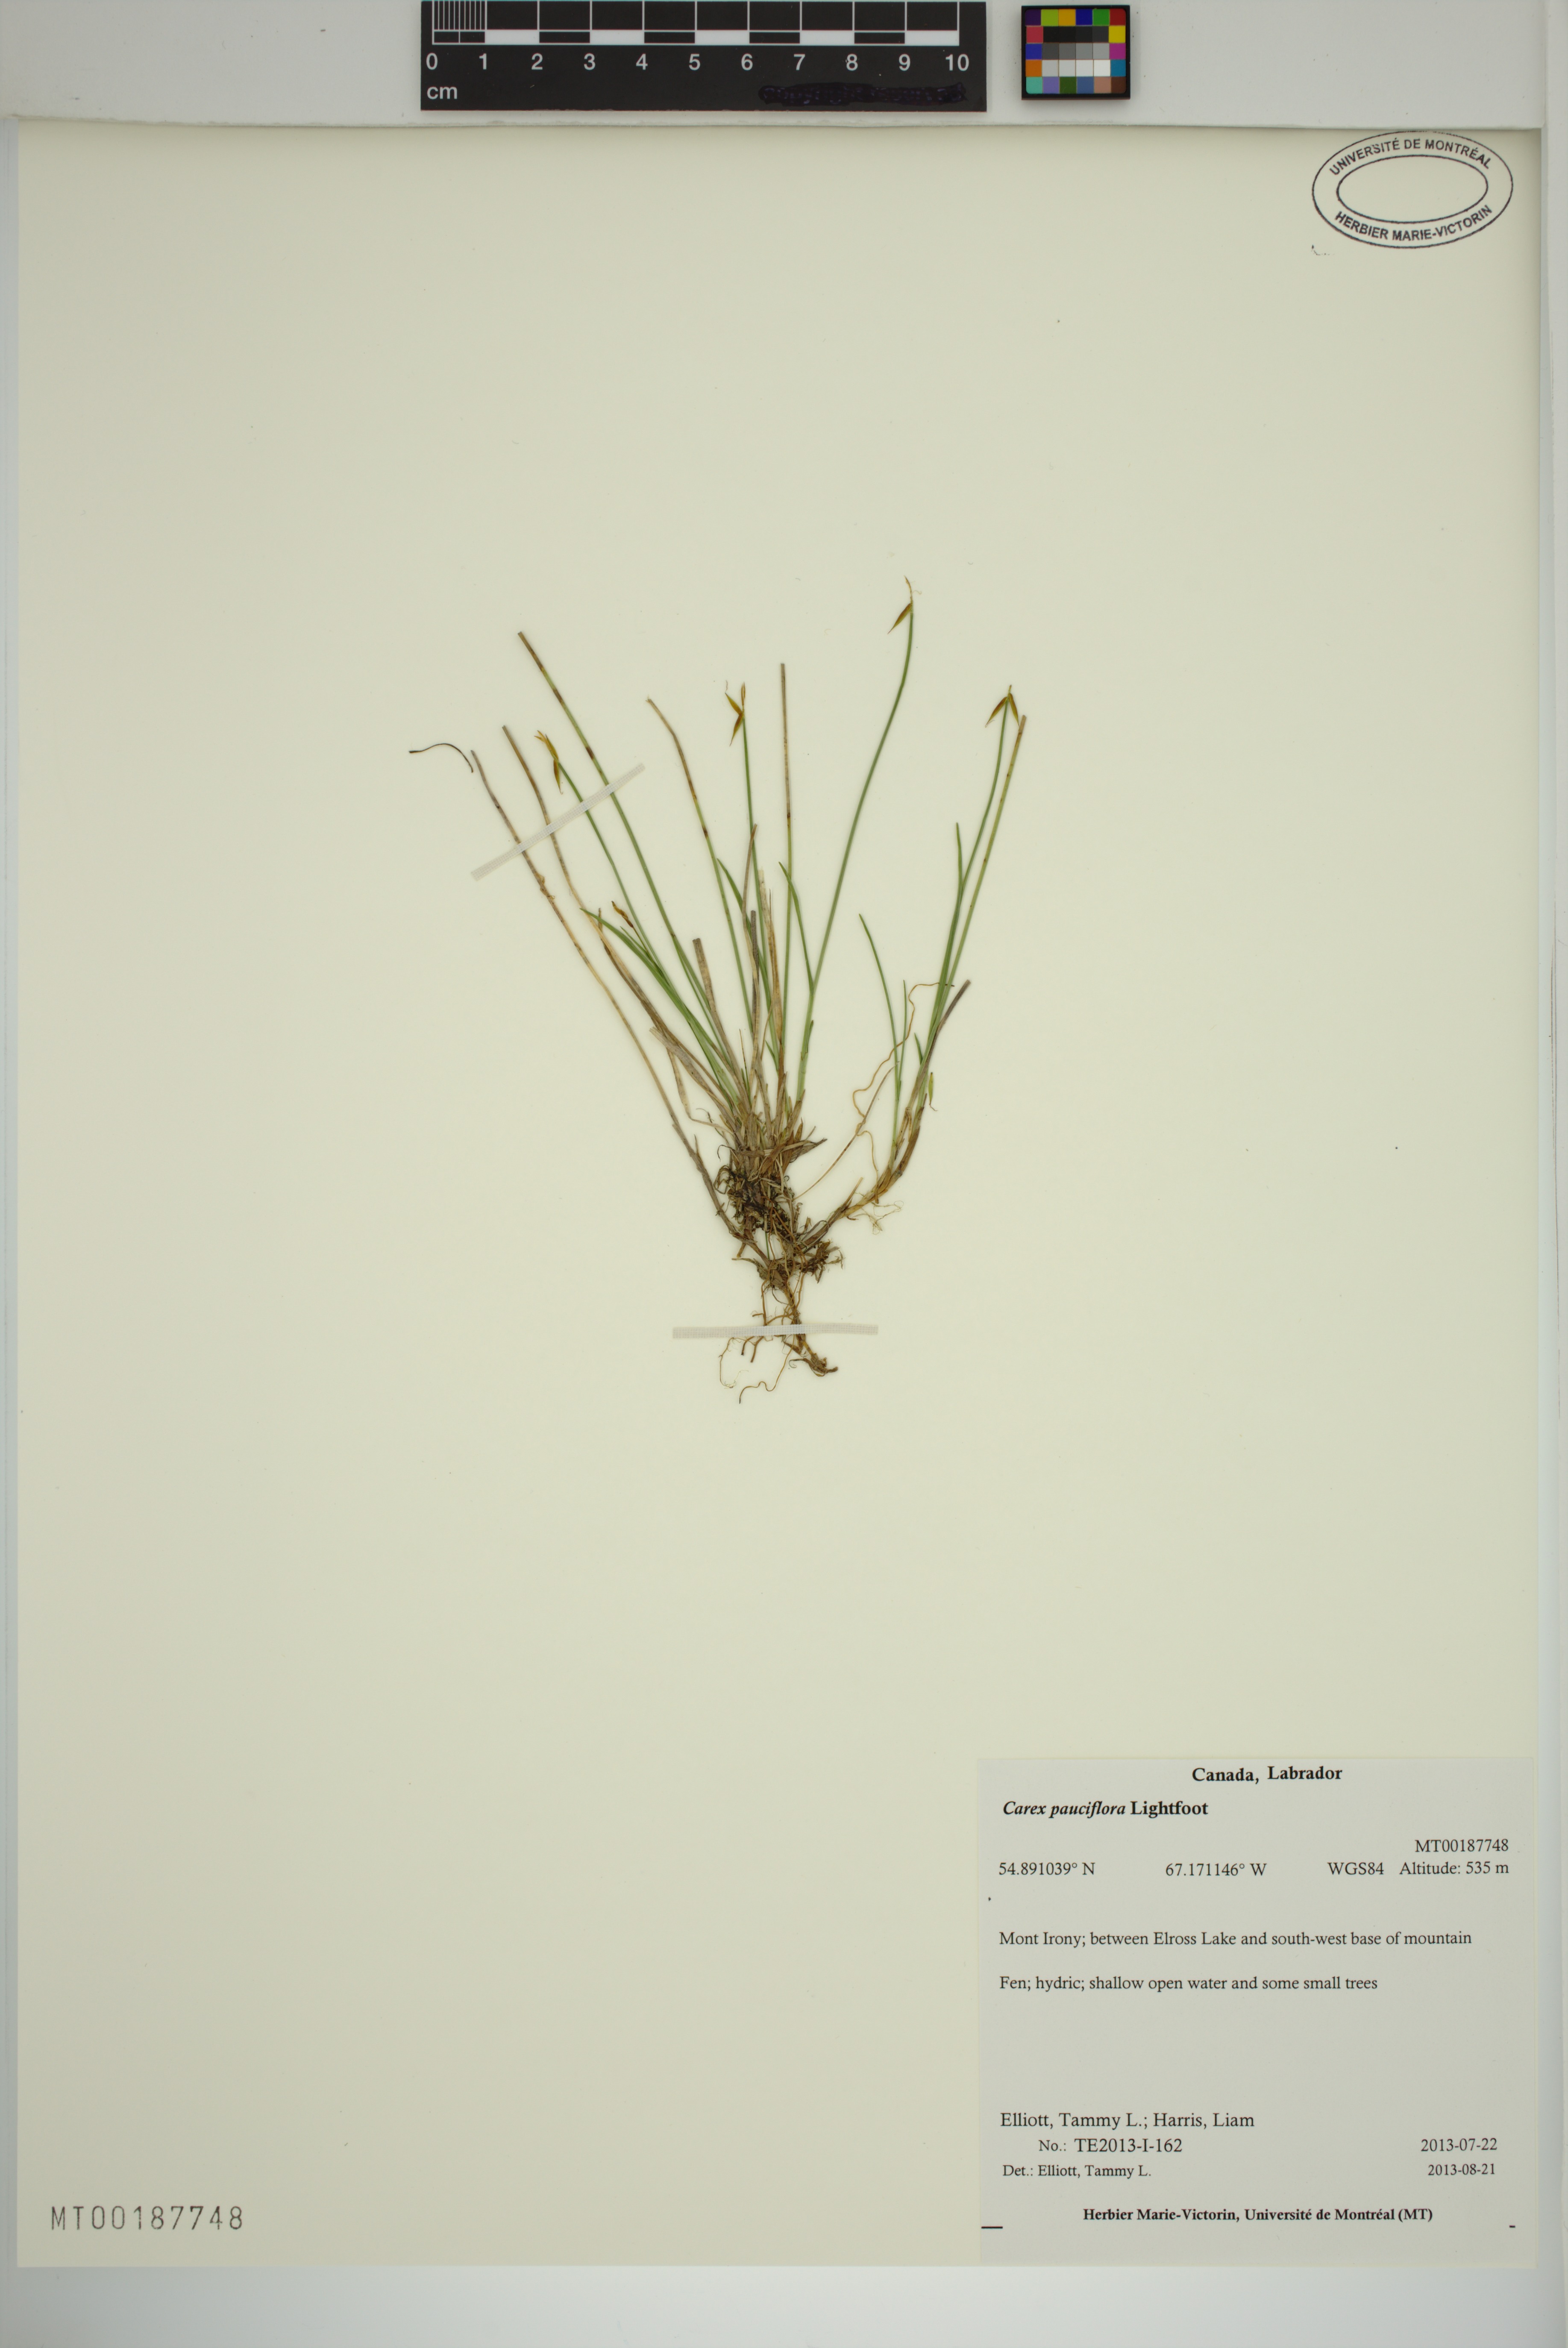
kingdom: Plantae
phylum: Tracheophyta
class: Liliopsida
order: Poales
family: Cyperaceae
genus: Carex
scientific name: Carex pauciflora
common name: Few-flowered sedge
